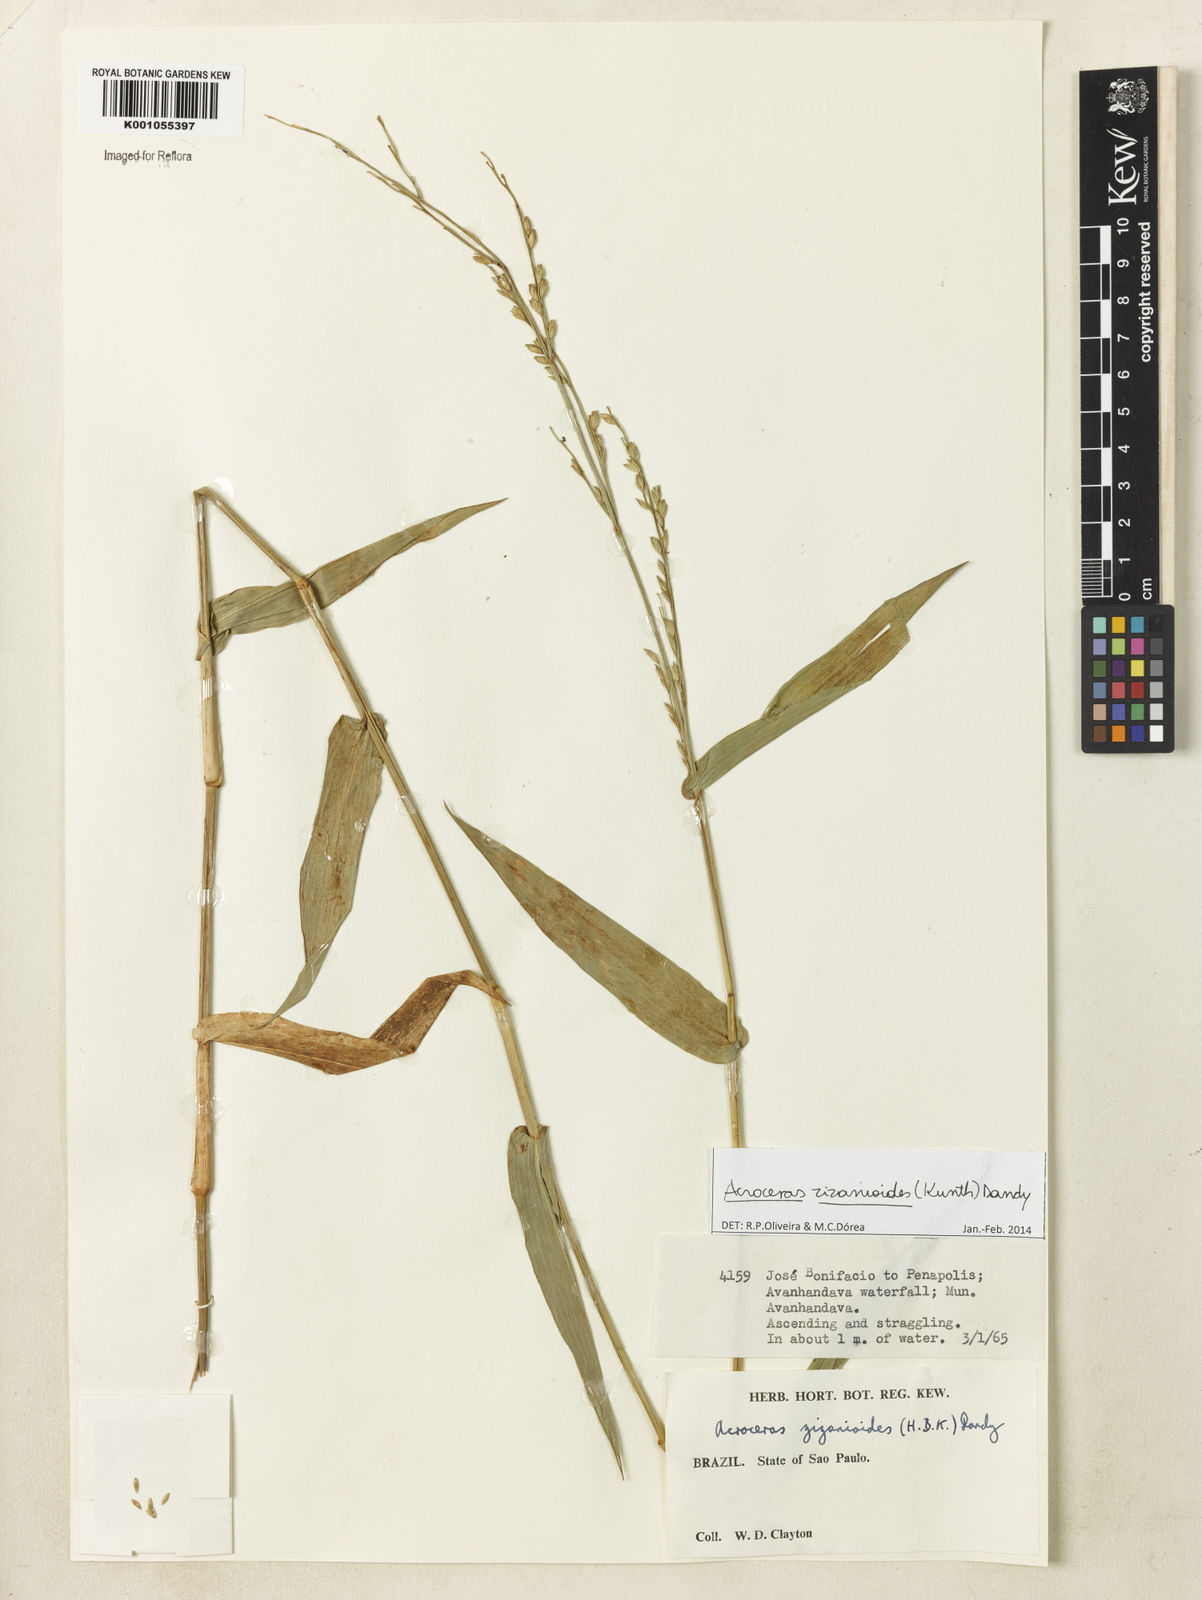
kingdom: Plantae
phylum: Tracheophyta
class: Liliopsida
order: Poales
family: Poaceae
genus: Acroceras
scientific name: Acroceras zizanioides
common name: Oat grass
